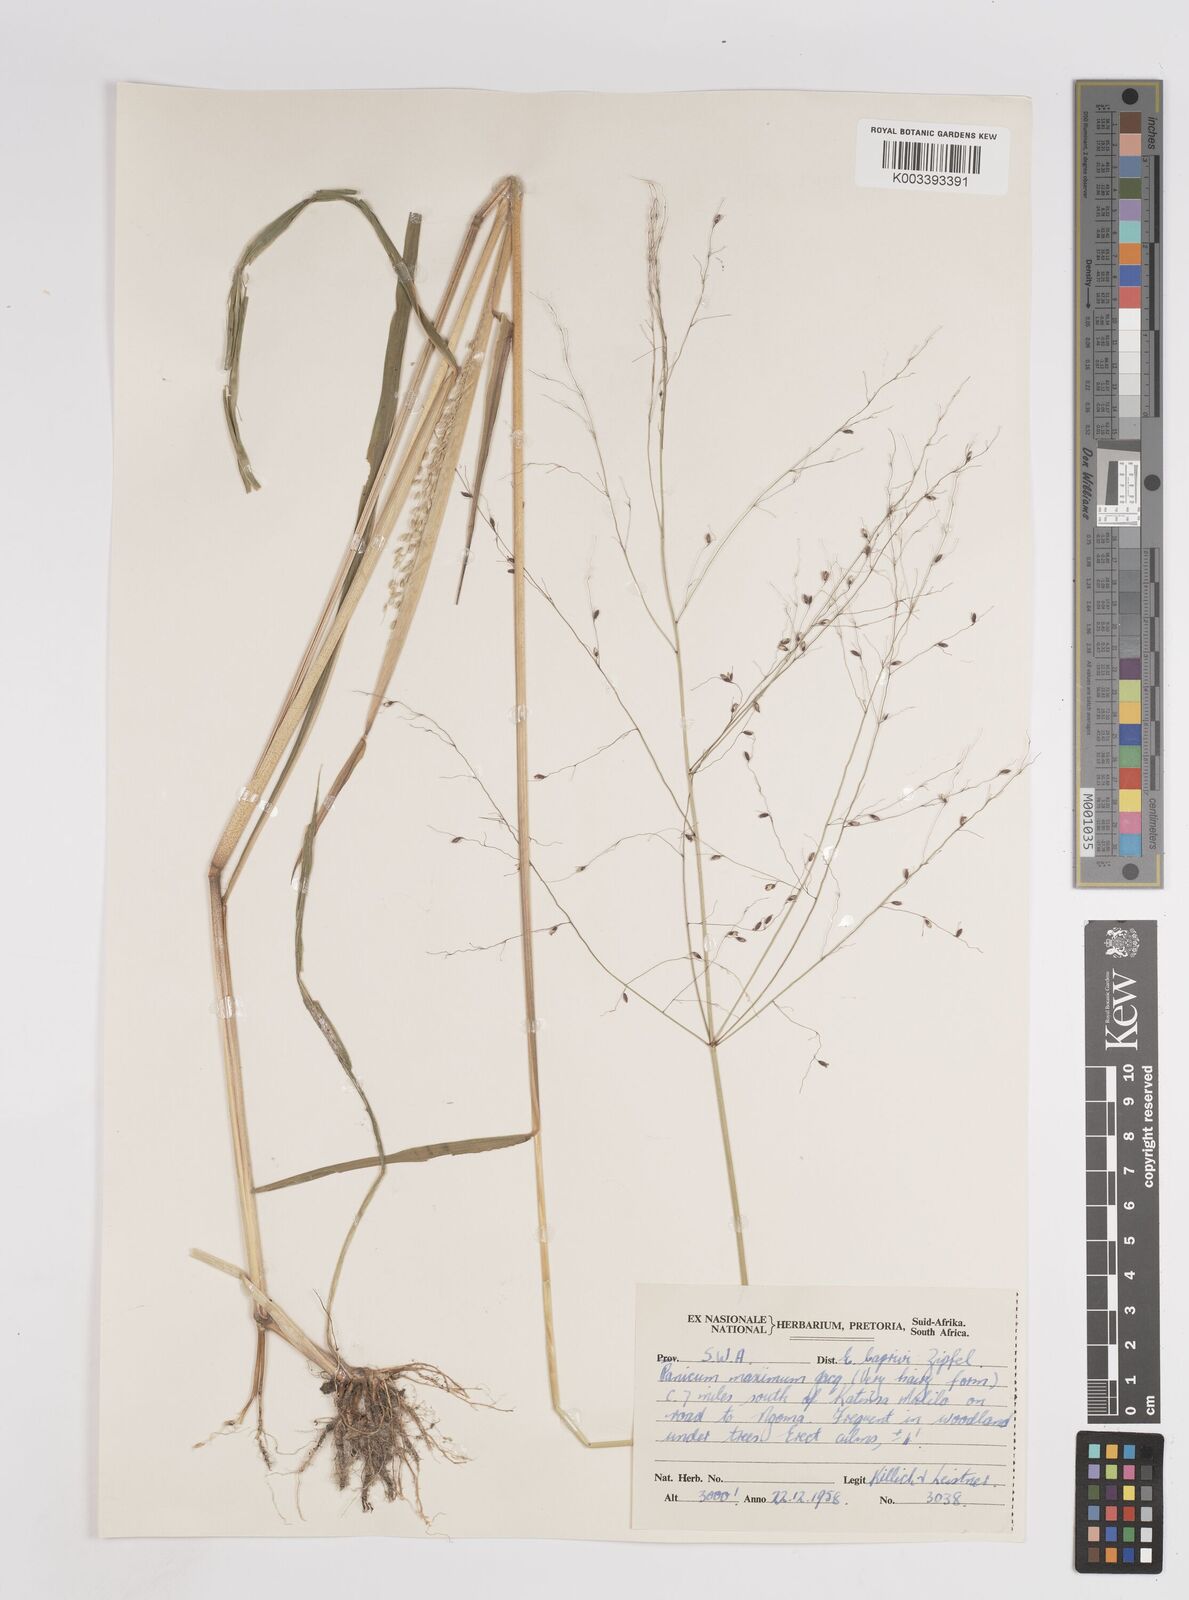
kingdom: Plantae
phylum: Tracheophyta
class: Liliopsida
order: Poales
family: Poaceae
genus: Megathyrsus
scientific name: Megathyrsus maximus
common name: Guineagrass
